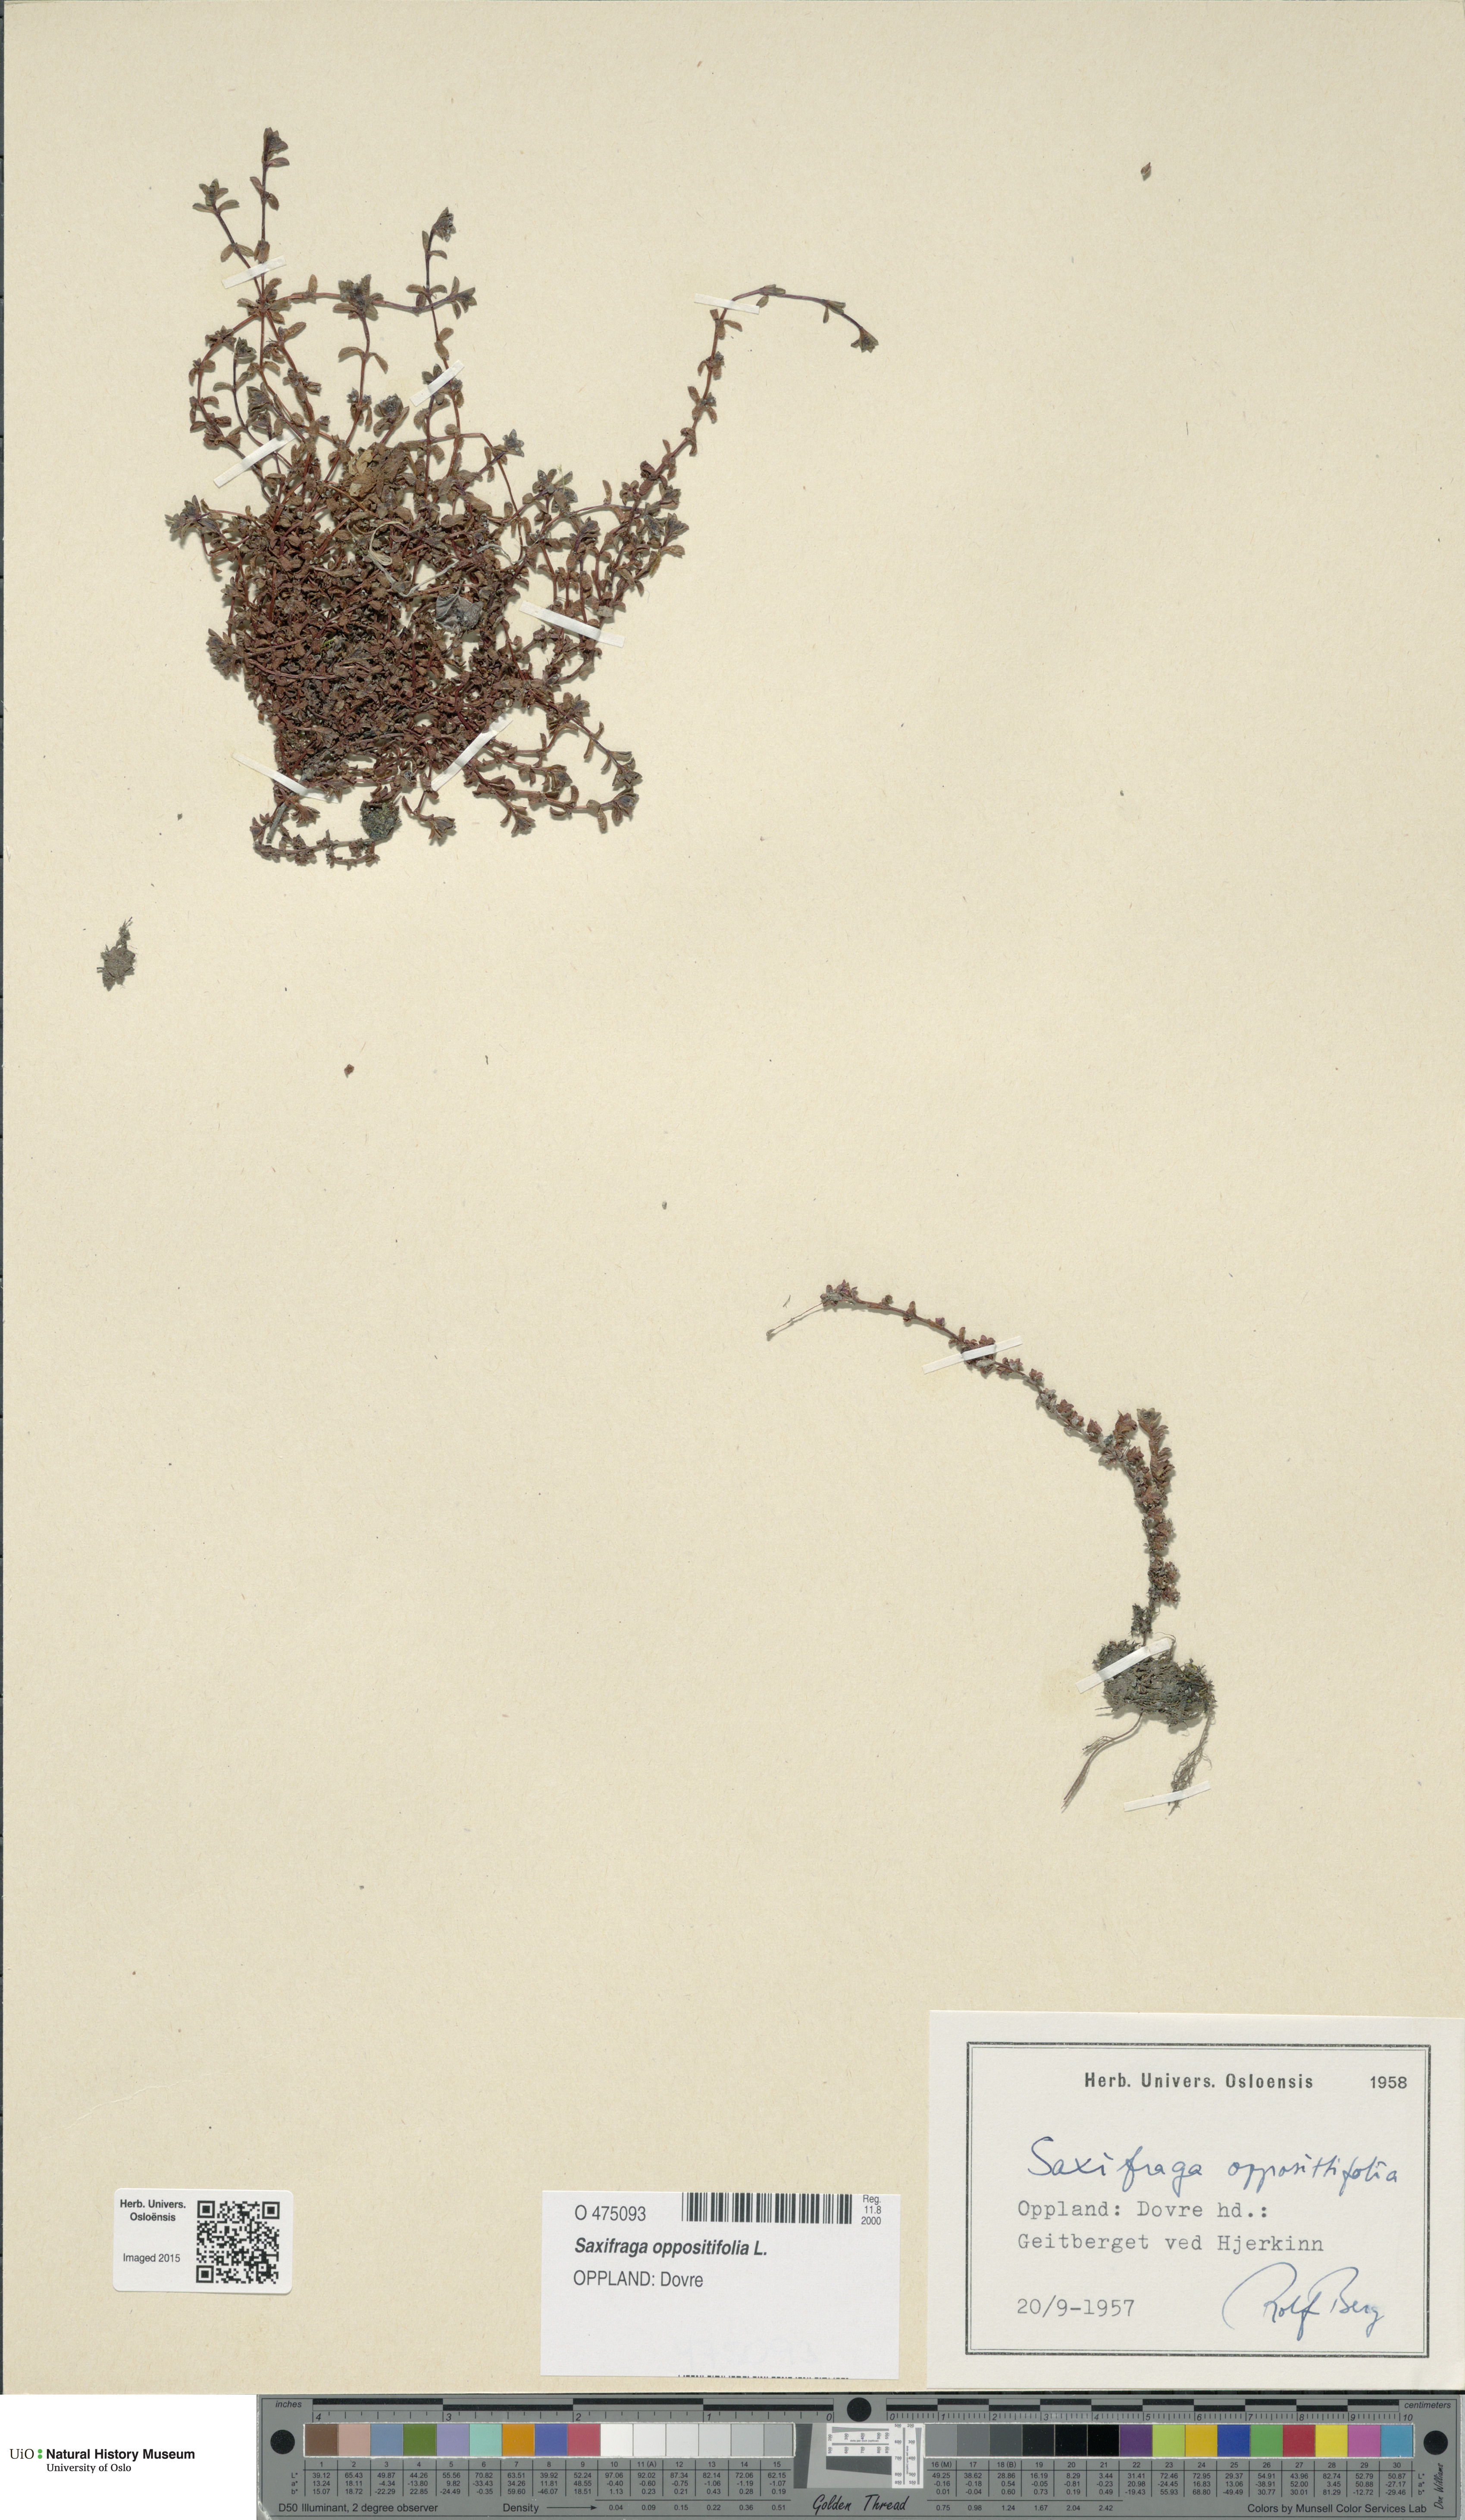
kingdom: Plantae
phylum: Tracheophyta
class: Magnoliopsida
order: Saxifragales
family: Saxifragaceae
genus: Saxifraga
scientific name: Saxifraga oppositifolia
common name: Purple saxifrage
